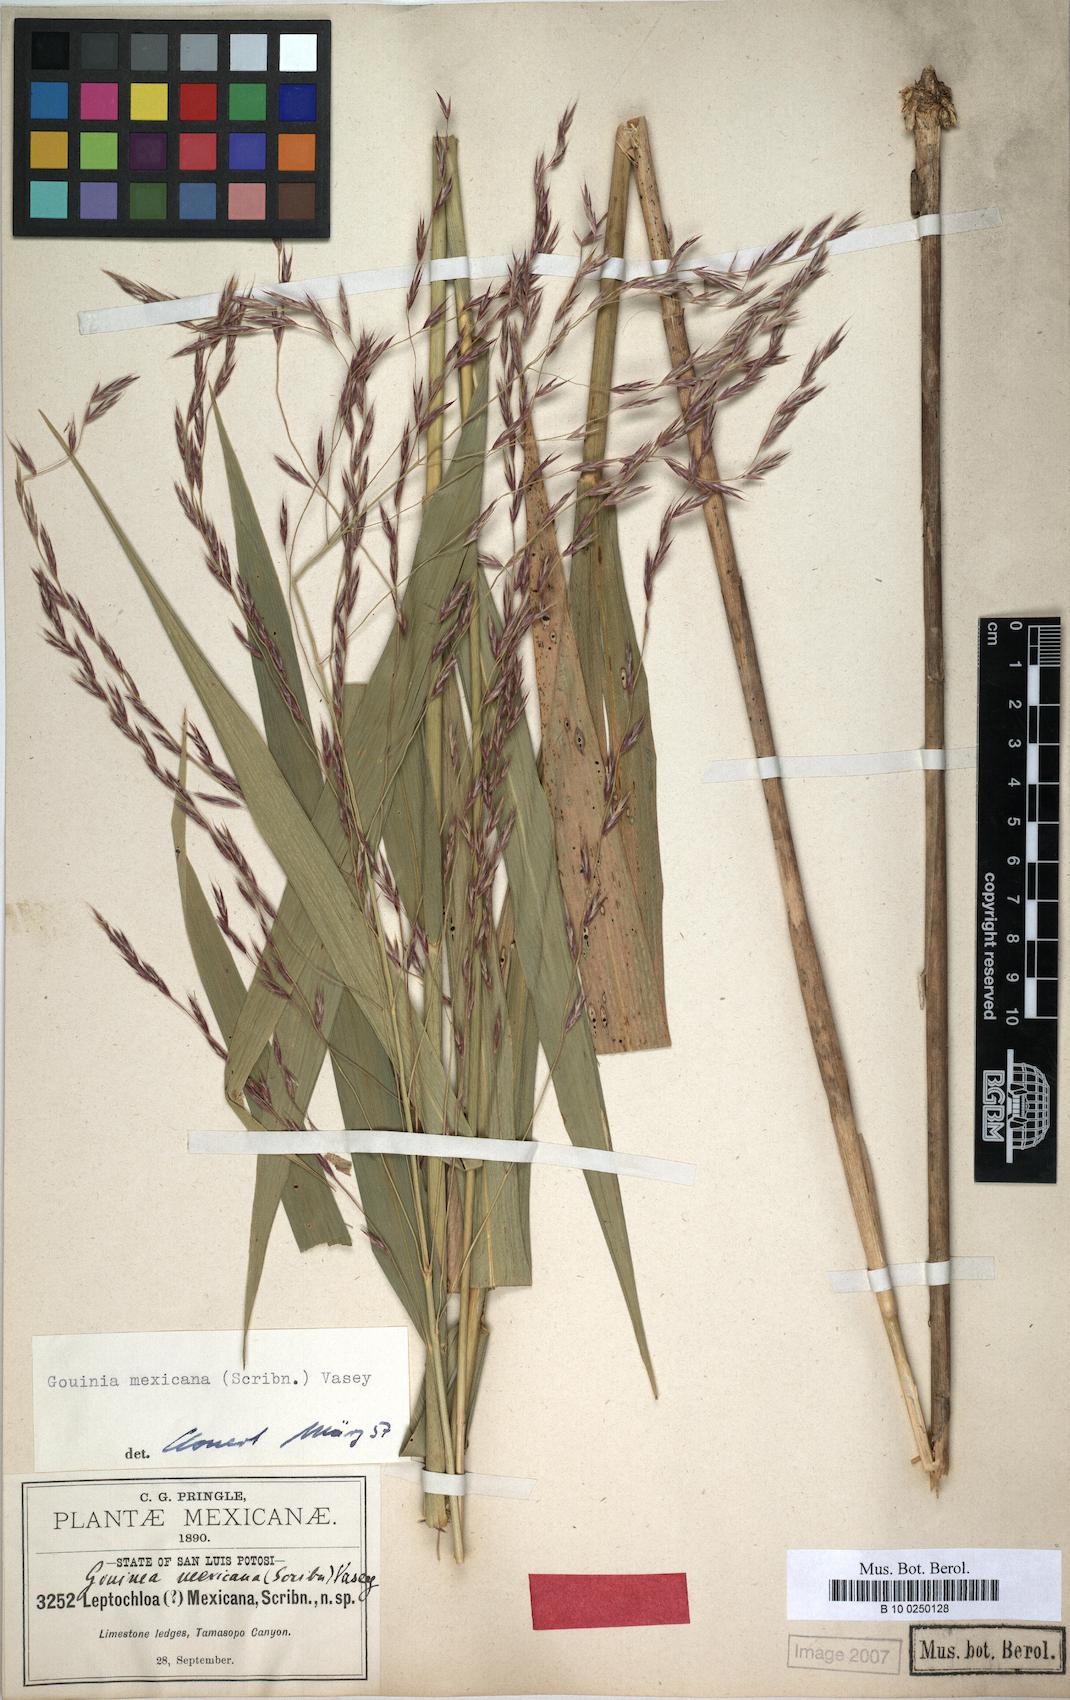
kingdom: Plantae
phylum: Tracheophyta
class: Liliopsida
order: Poales
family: Poaceae
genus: Gouinia
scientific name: Gouinia mexicana
